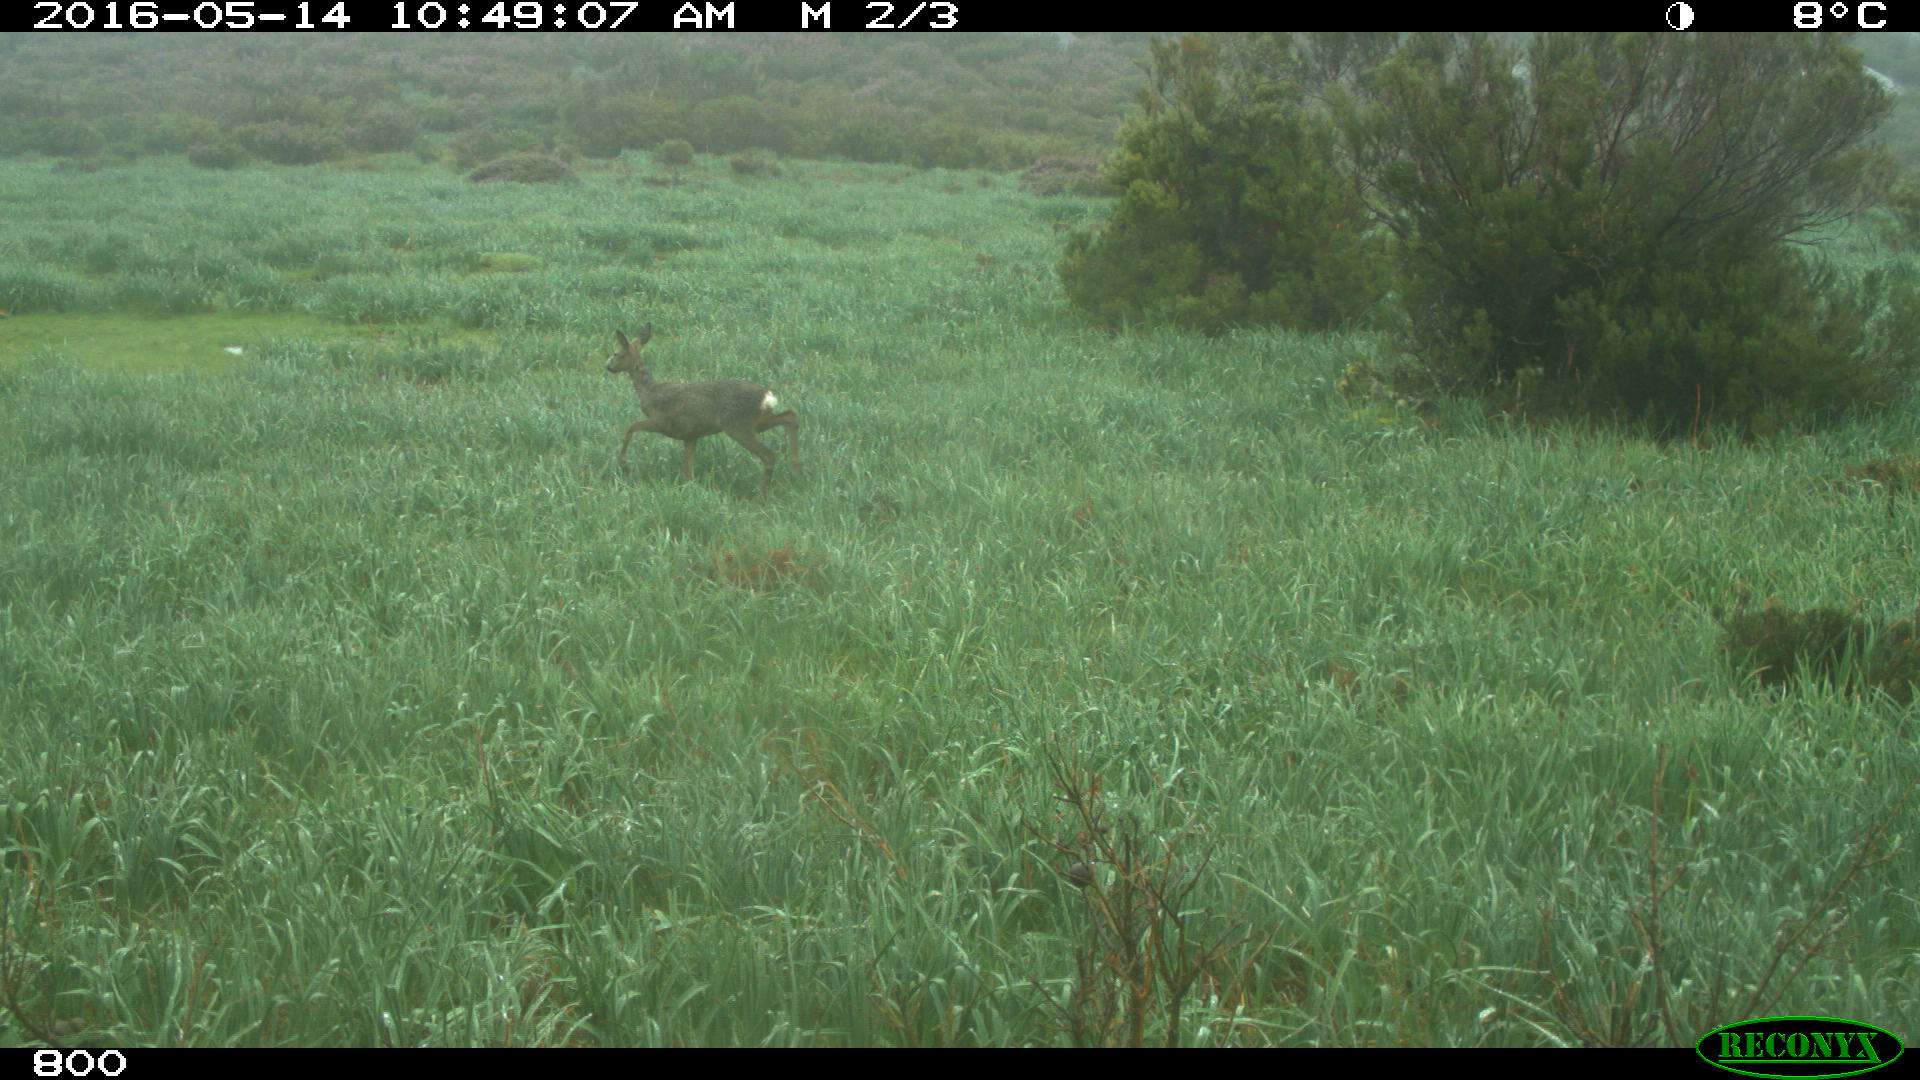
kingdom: Animalia
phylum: Chordata
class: Mammalia
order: Artiodactyla
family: Cervidae
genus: Capreolus
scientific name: Capreolus capreolus
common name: Western roe deer
